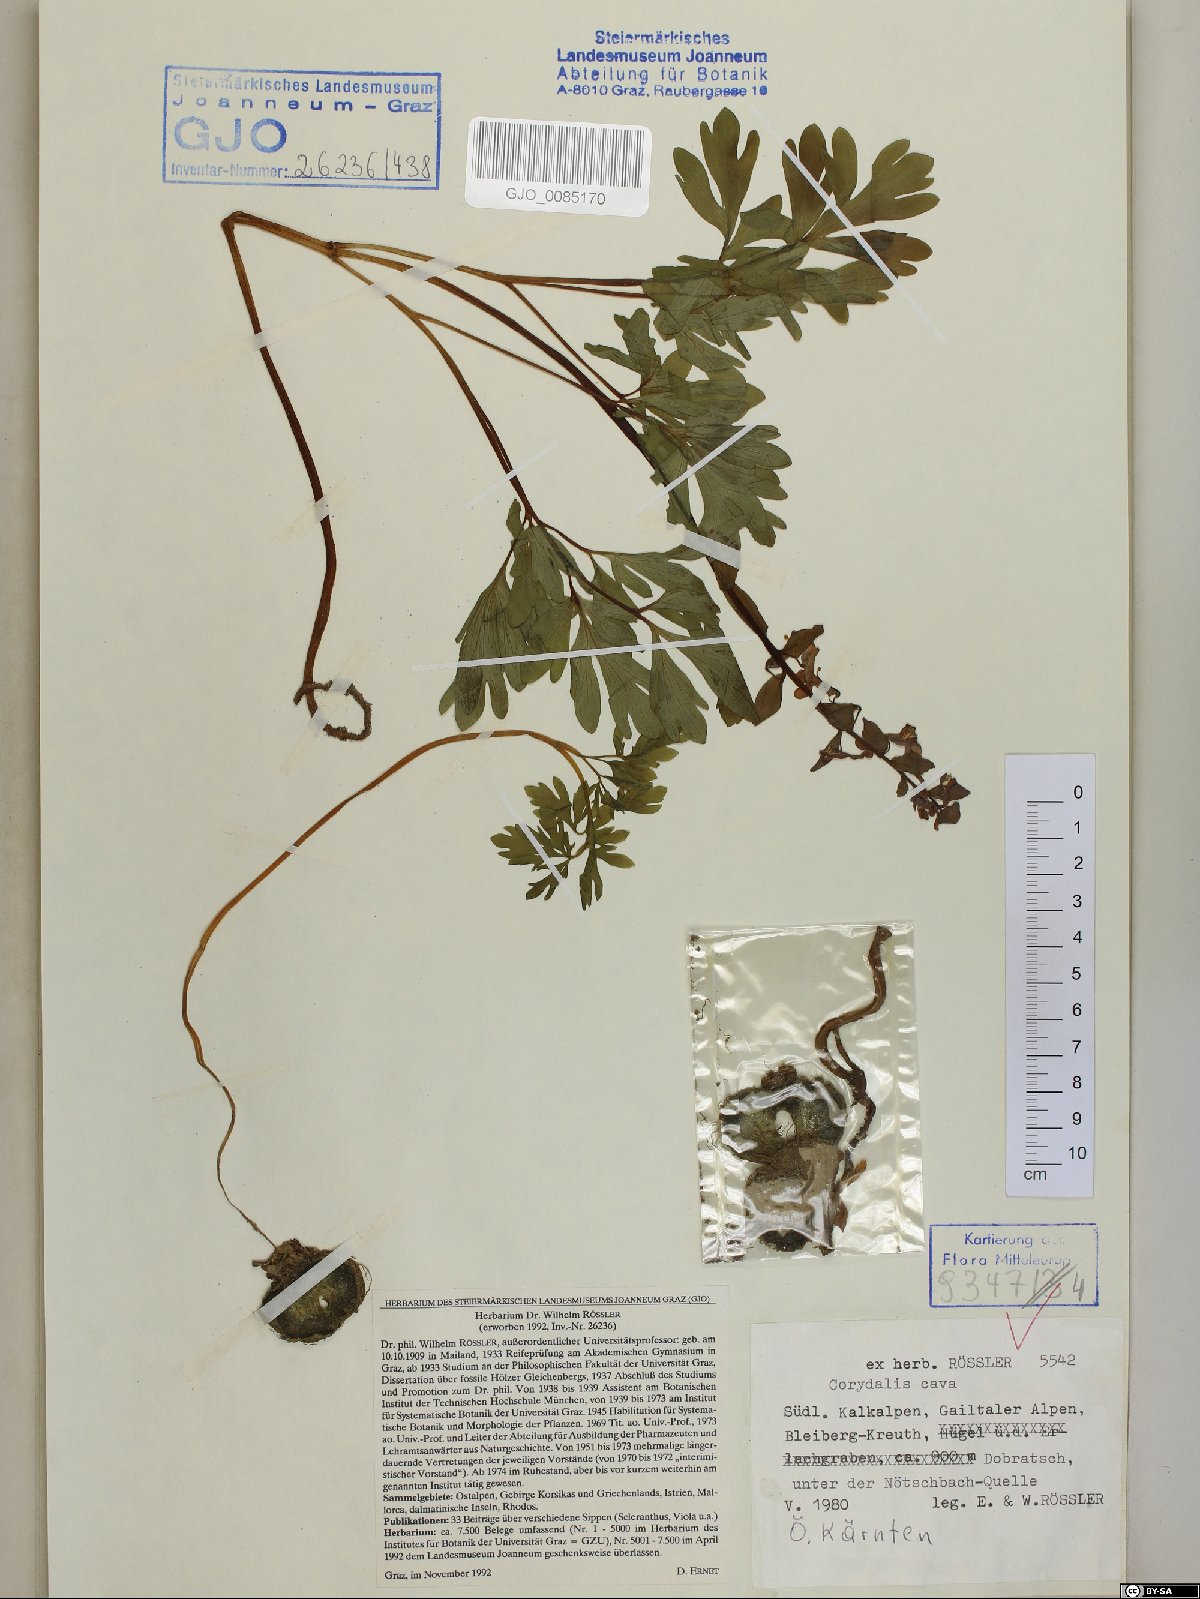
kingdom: Plantae
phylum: Tracheophyta
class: Magnoliopsida
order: Ranunculales
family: Papaveraceae
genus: Corydalis
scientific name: Corydalis cava
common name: Hollowroot
